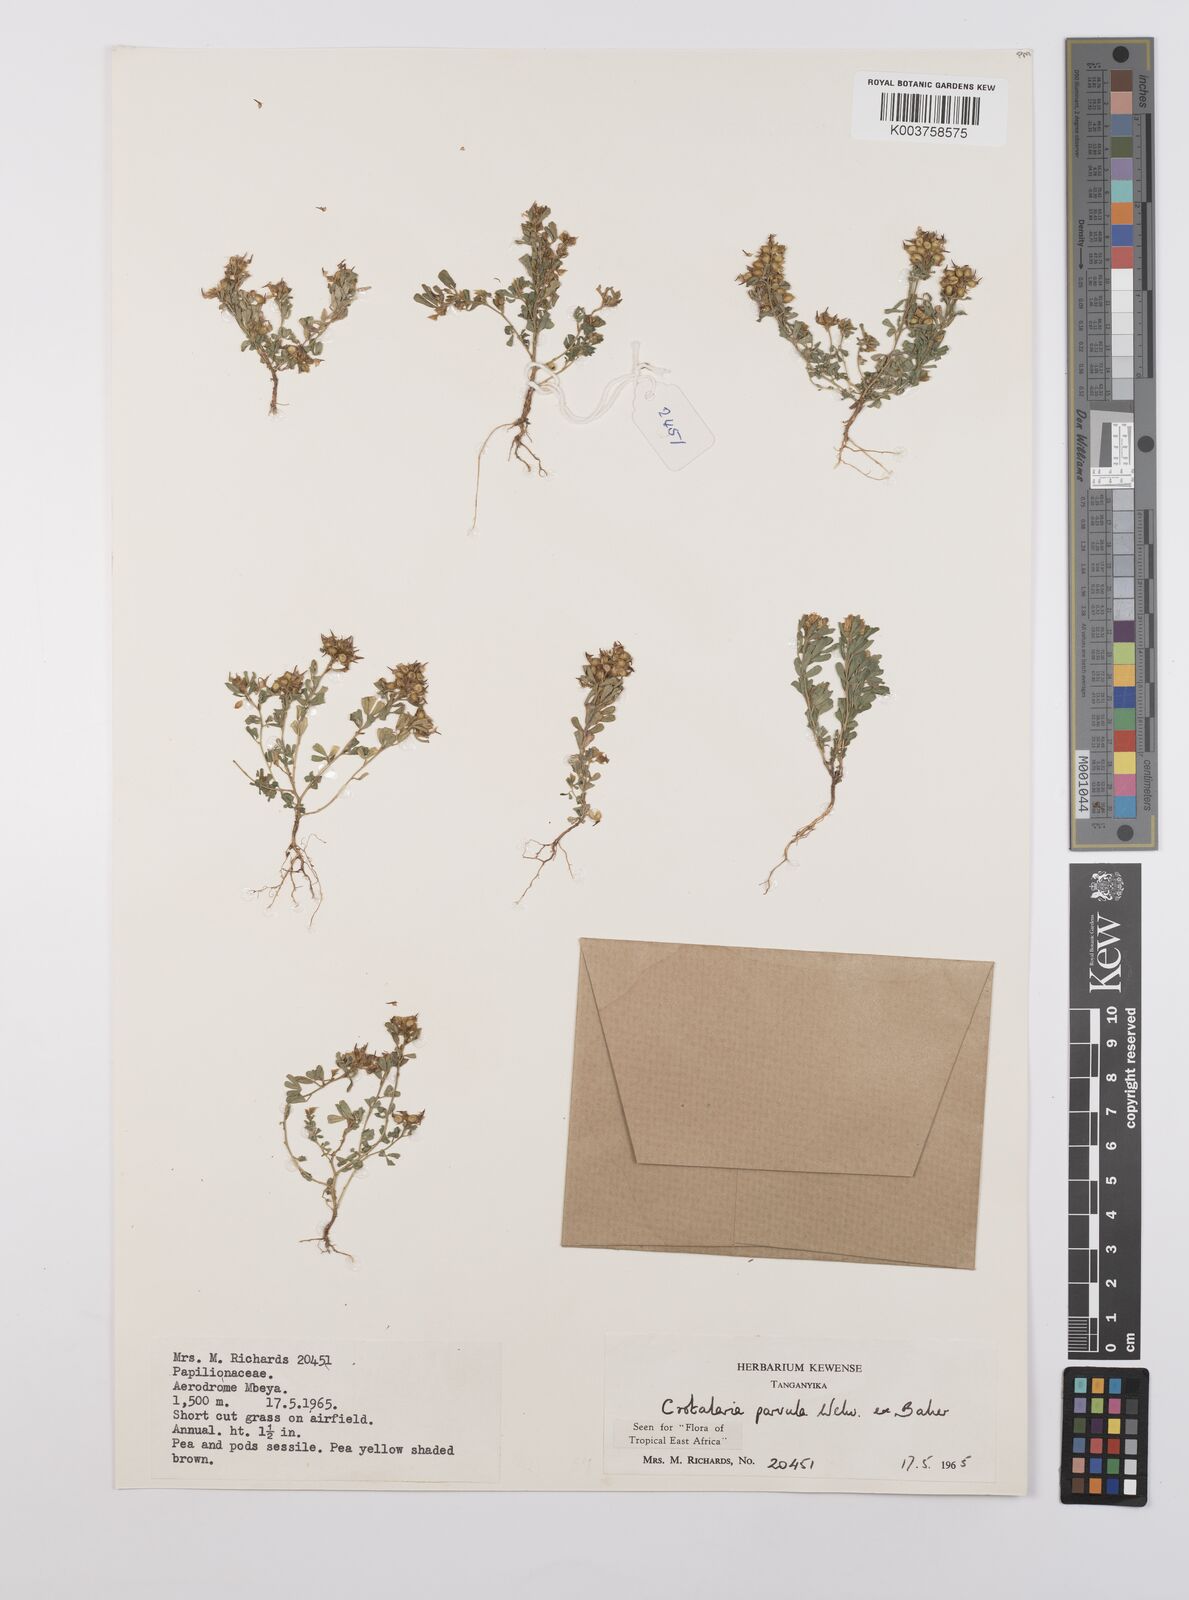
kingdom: Plantae
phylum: Tracheophyta
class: Magnoliopsida
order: Fabales
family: Fabaceae
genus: Crotalaria
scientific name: Crotalaria parvula
